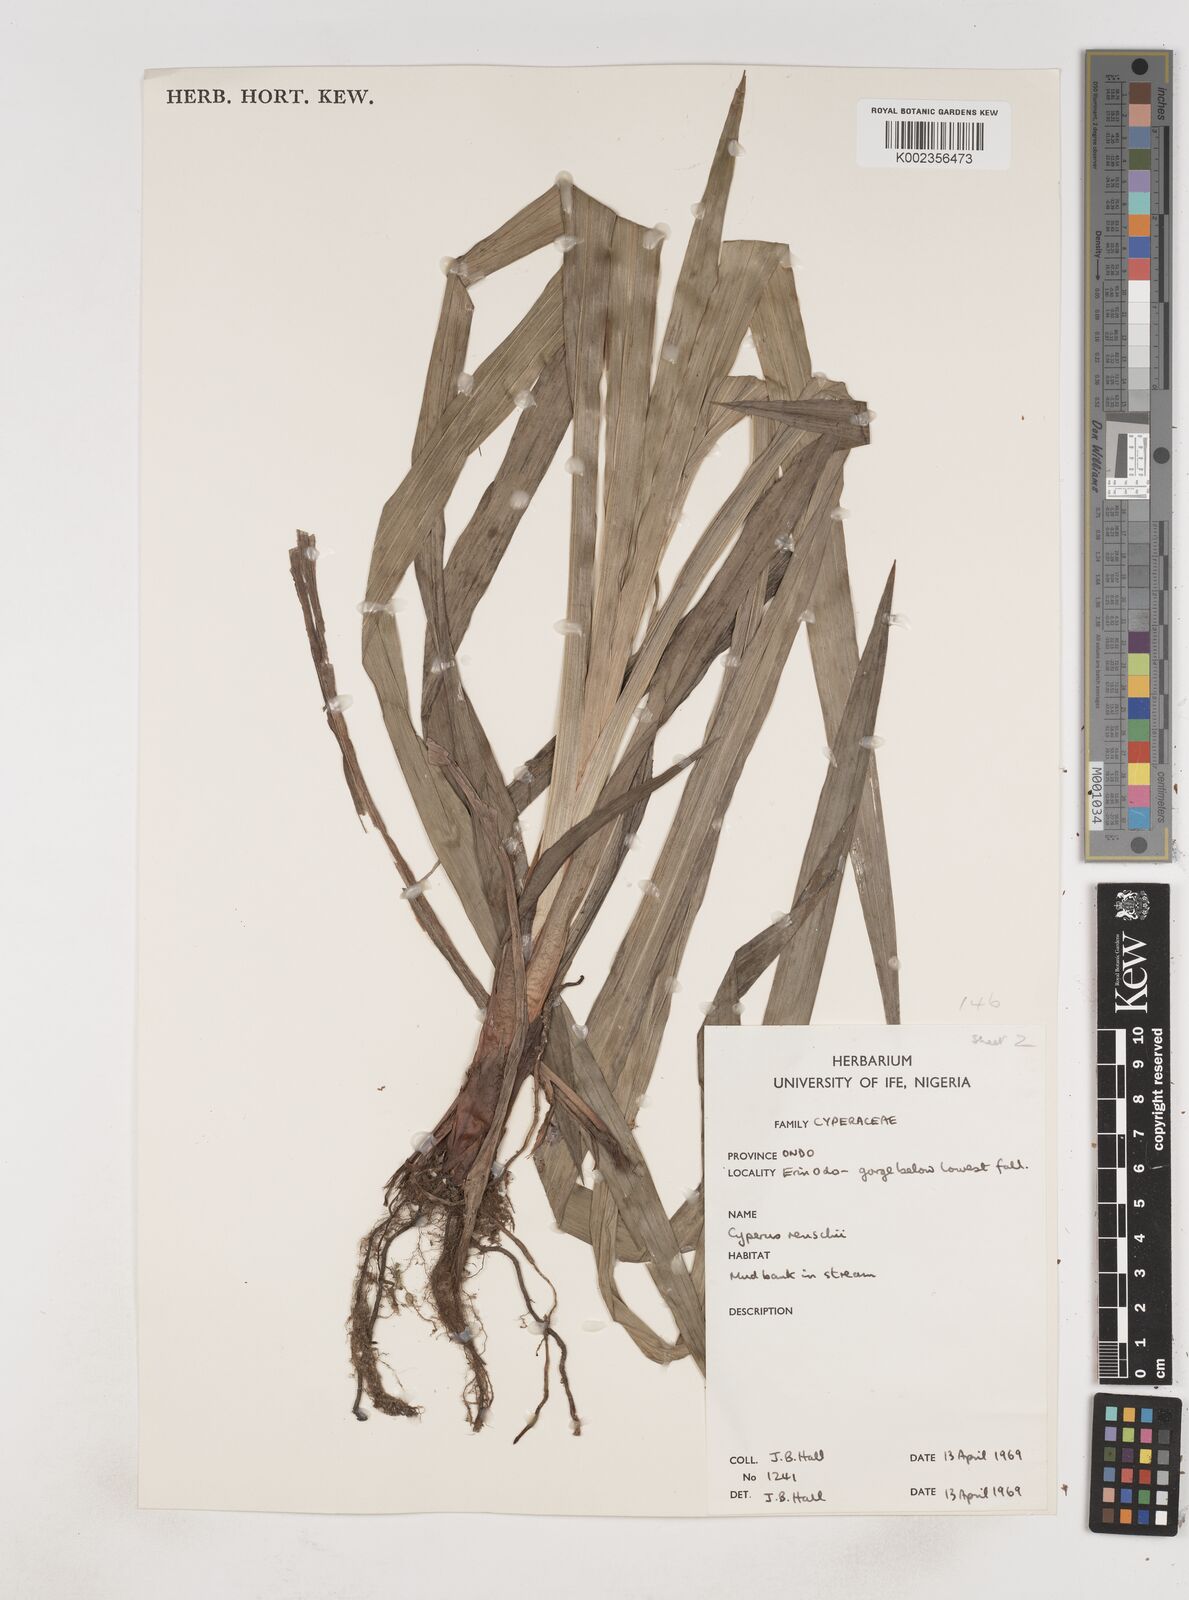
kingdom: Plantae
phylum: Tracheophyta
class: Liliopsida
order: Poales
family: Cyperaceae
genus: Cyperus
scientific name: Cyperus renschii
